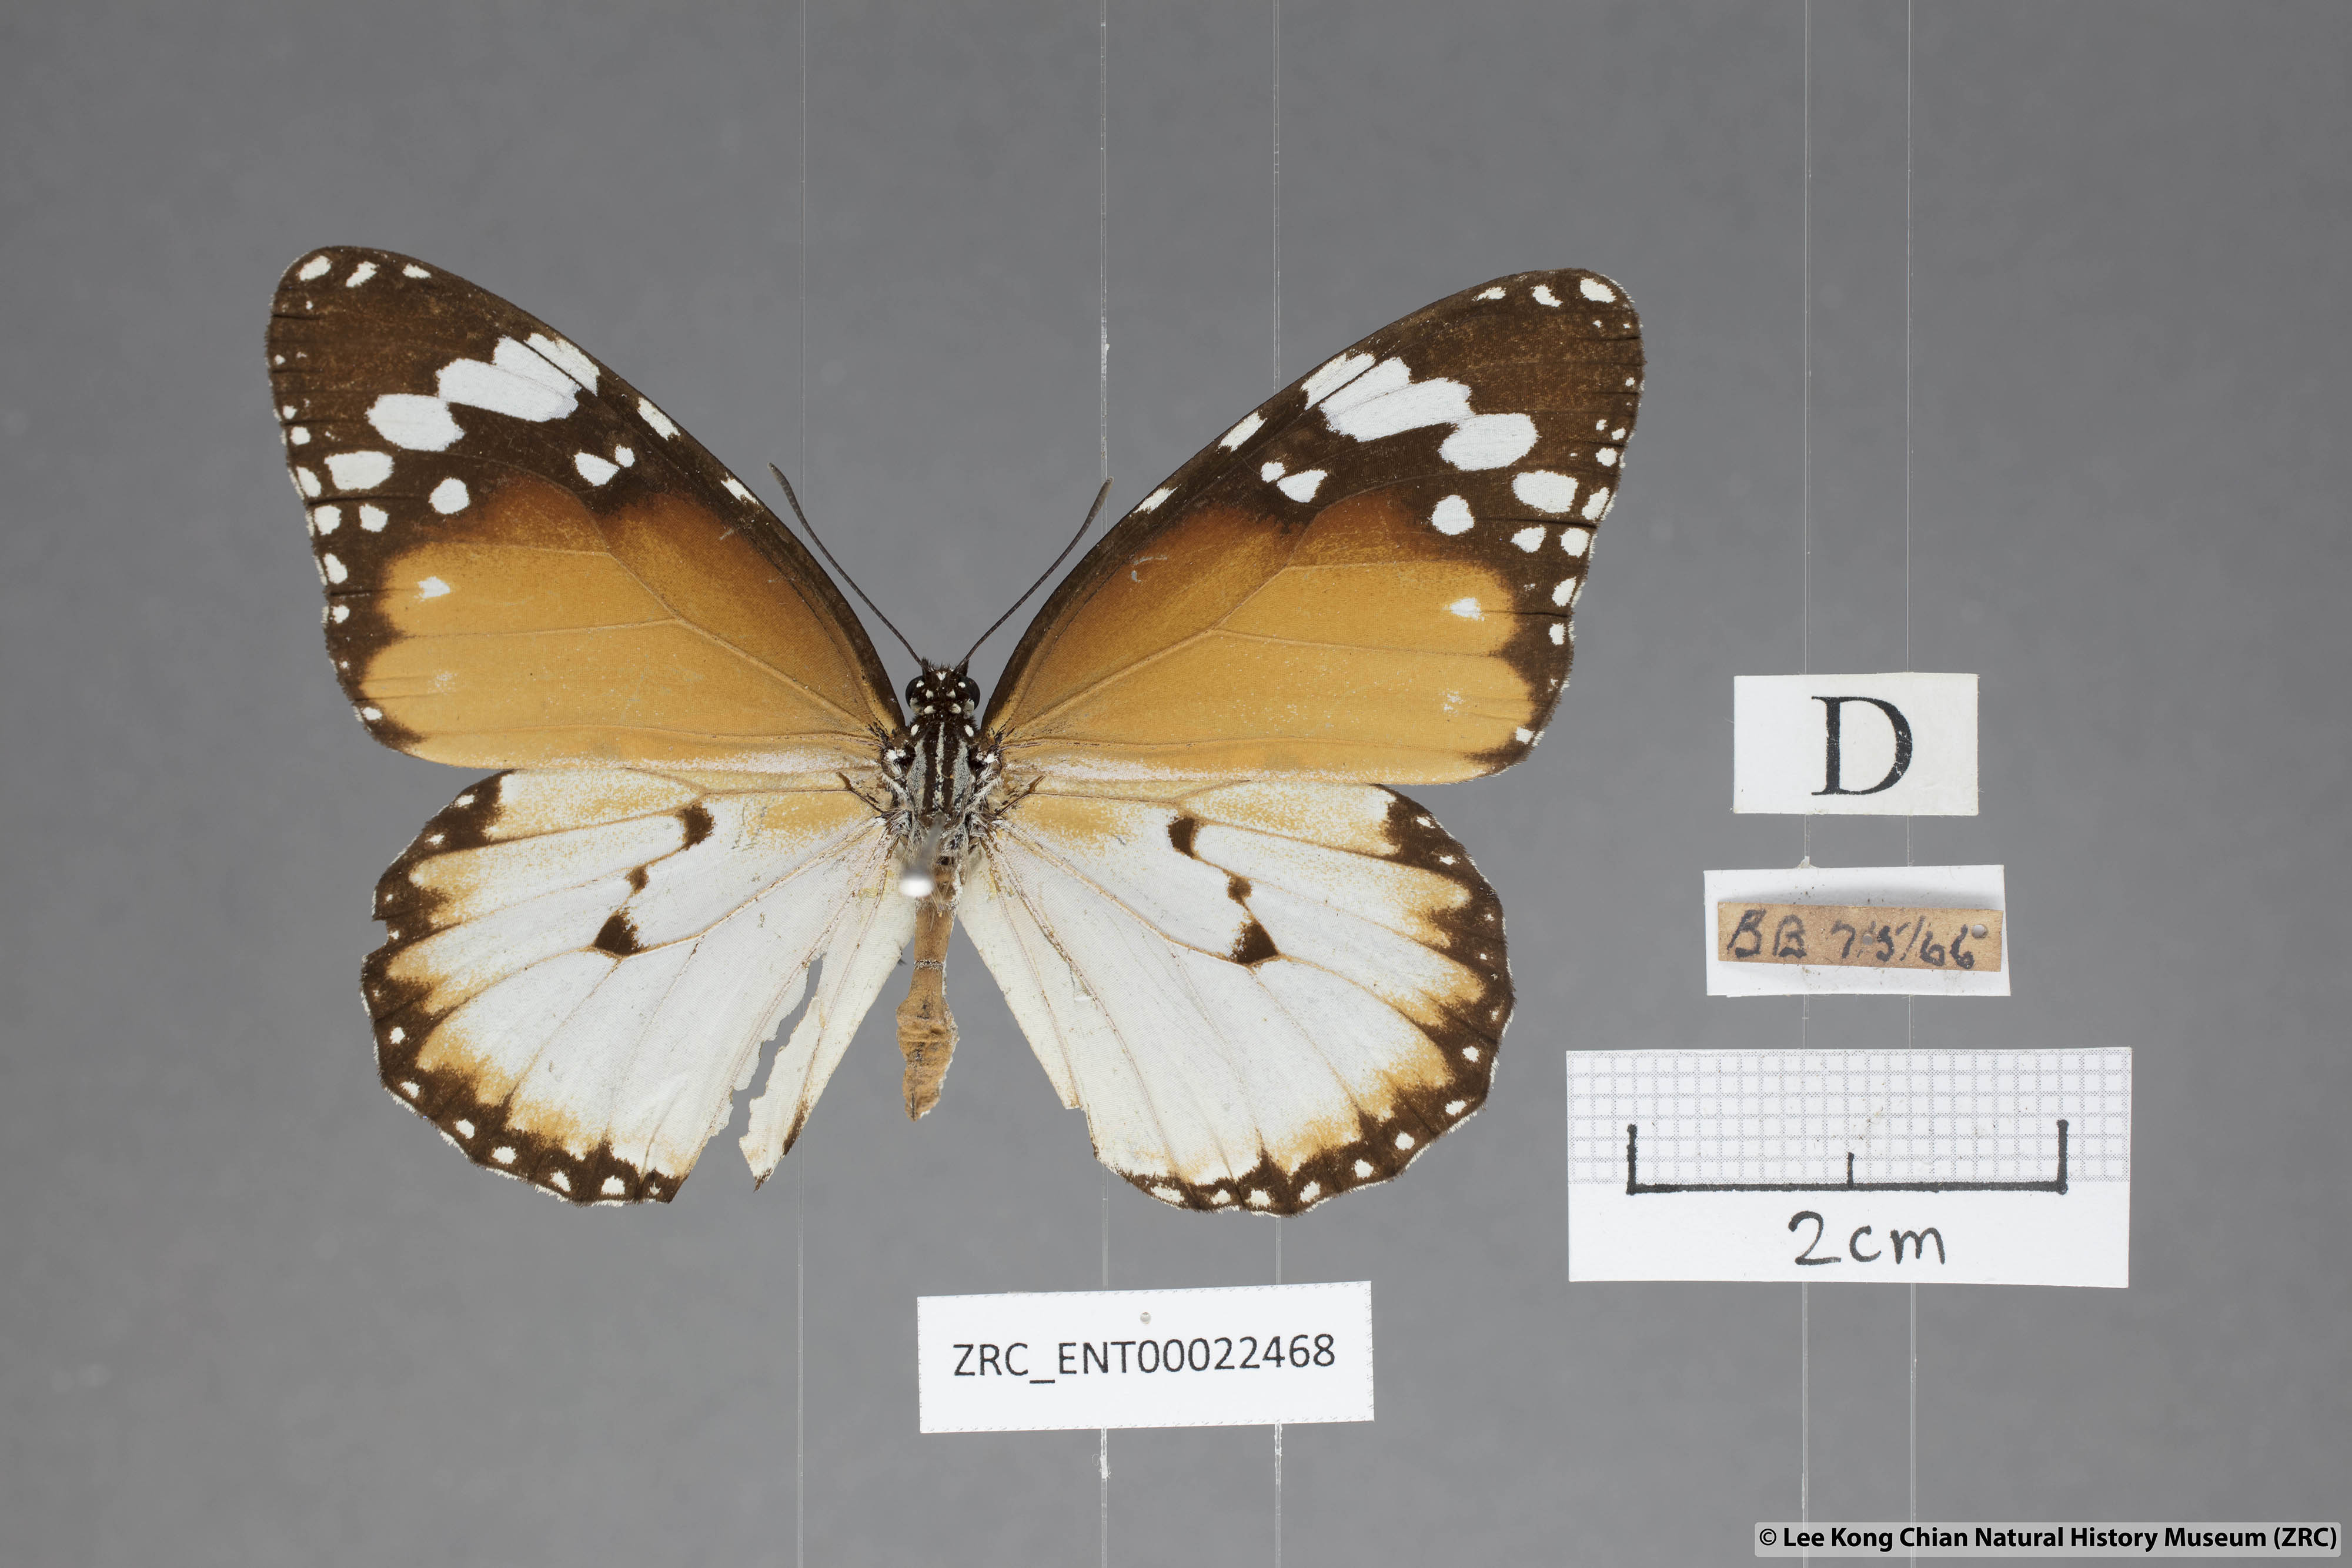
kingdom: Animalia
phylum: Arthropoda
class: Insecta
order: Lepidoptera
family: Nymphalidae
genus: Danaus
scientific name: Danaus chrysippus
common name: Plain tiger
